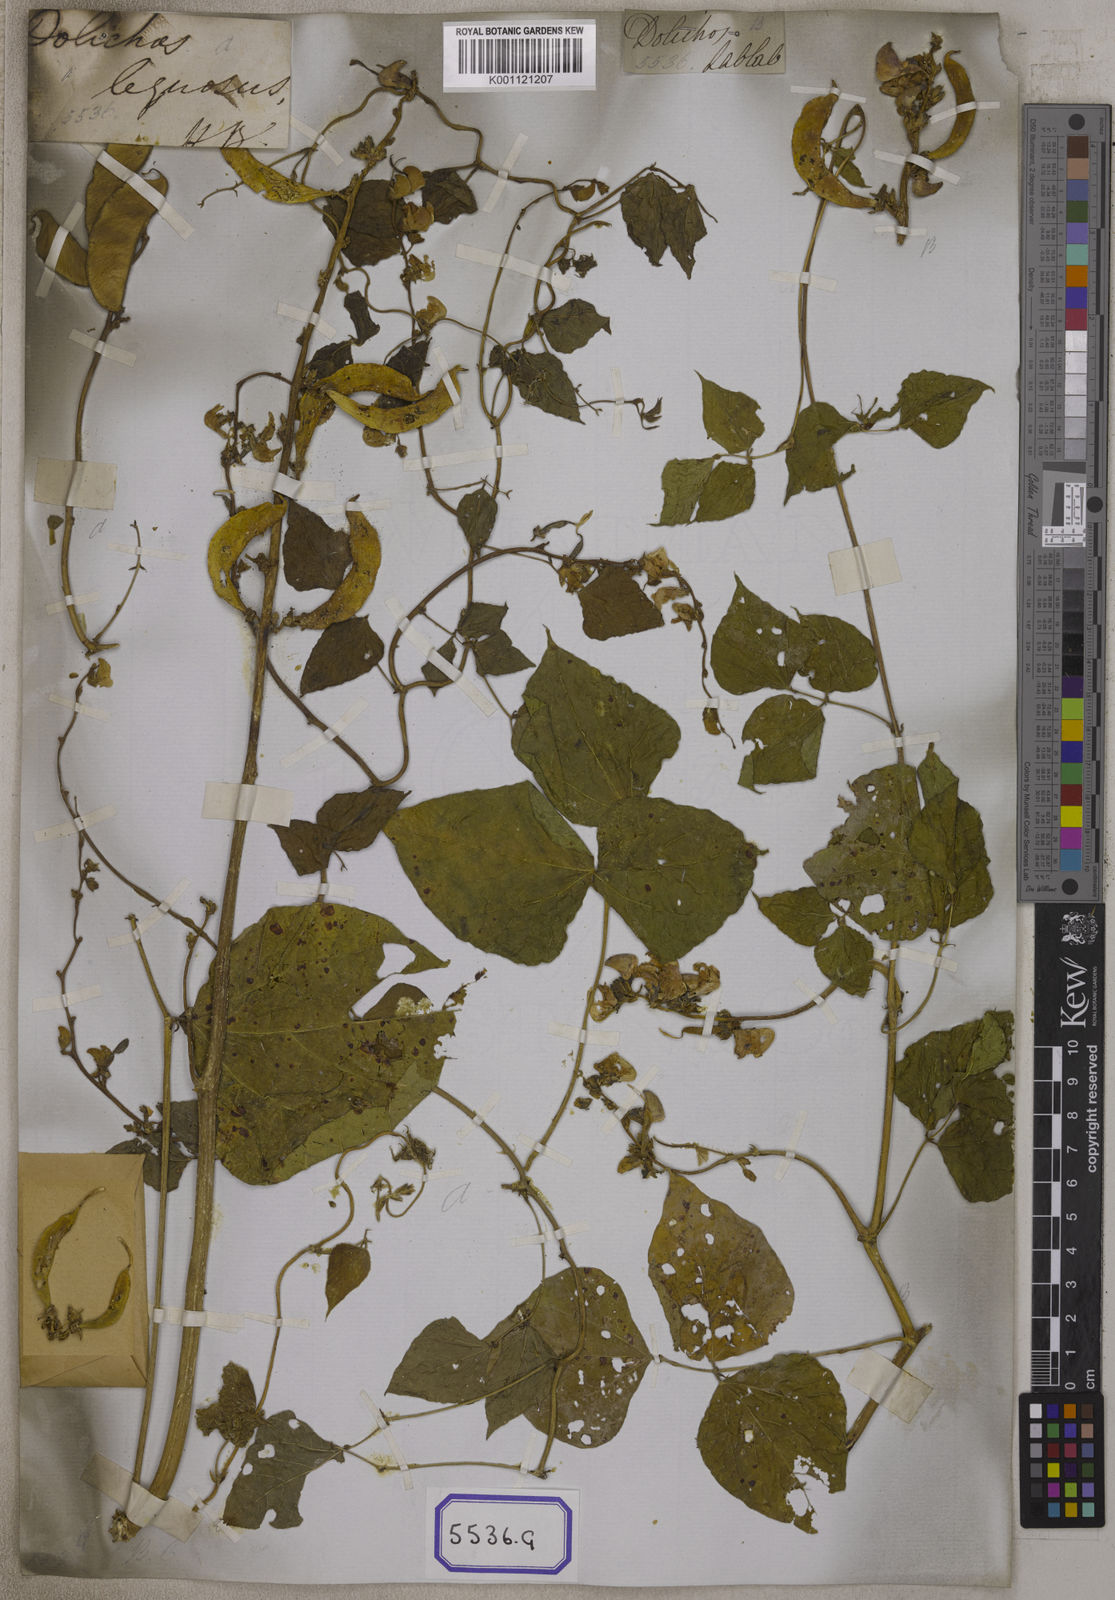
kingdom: Plantae
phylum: Tracheophyta
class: Magnoliopsida
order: Fabales
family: Fabaceae
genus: Lablab
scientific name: Lablab purpureus
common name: Lablab-bean
